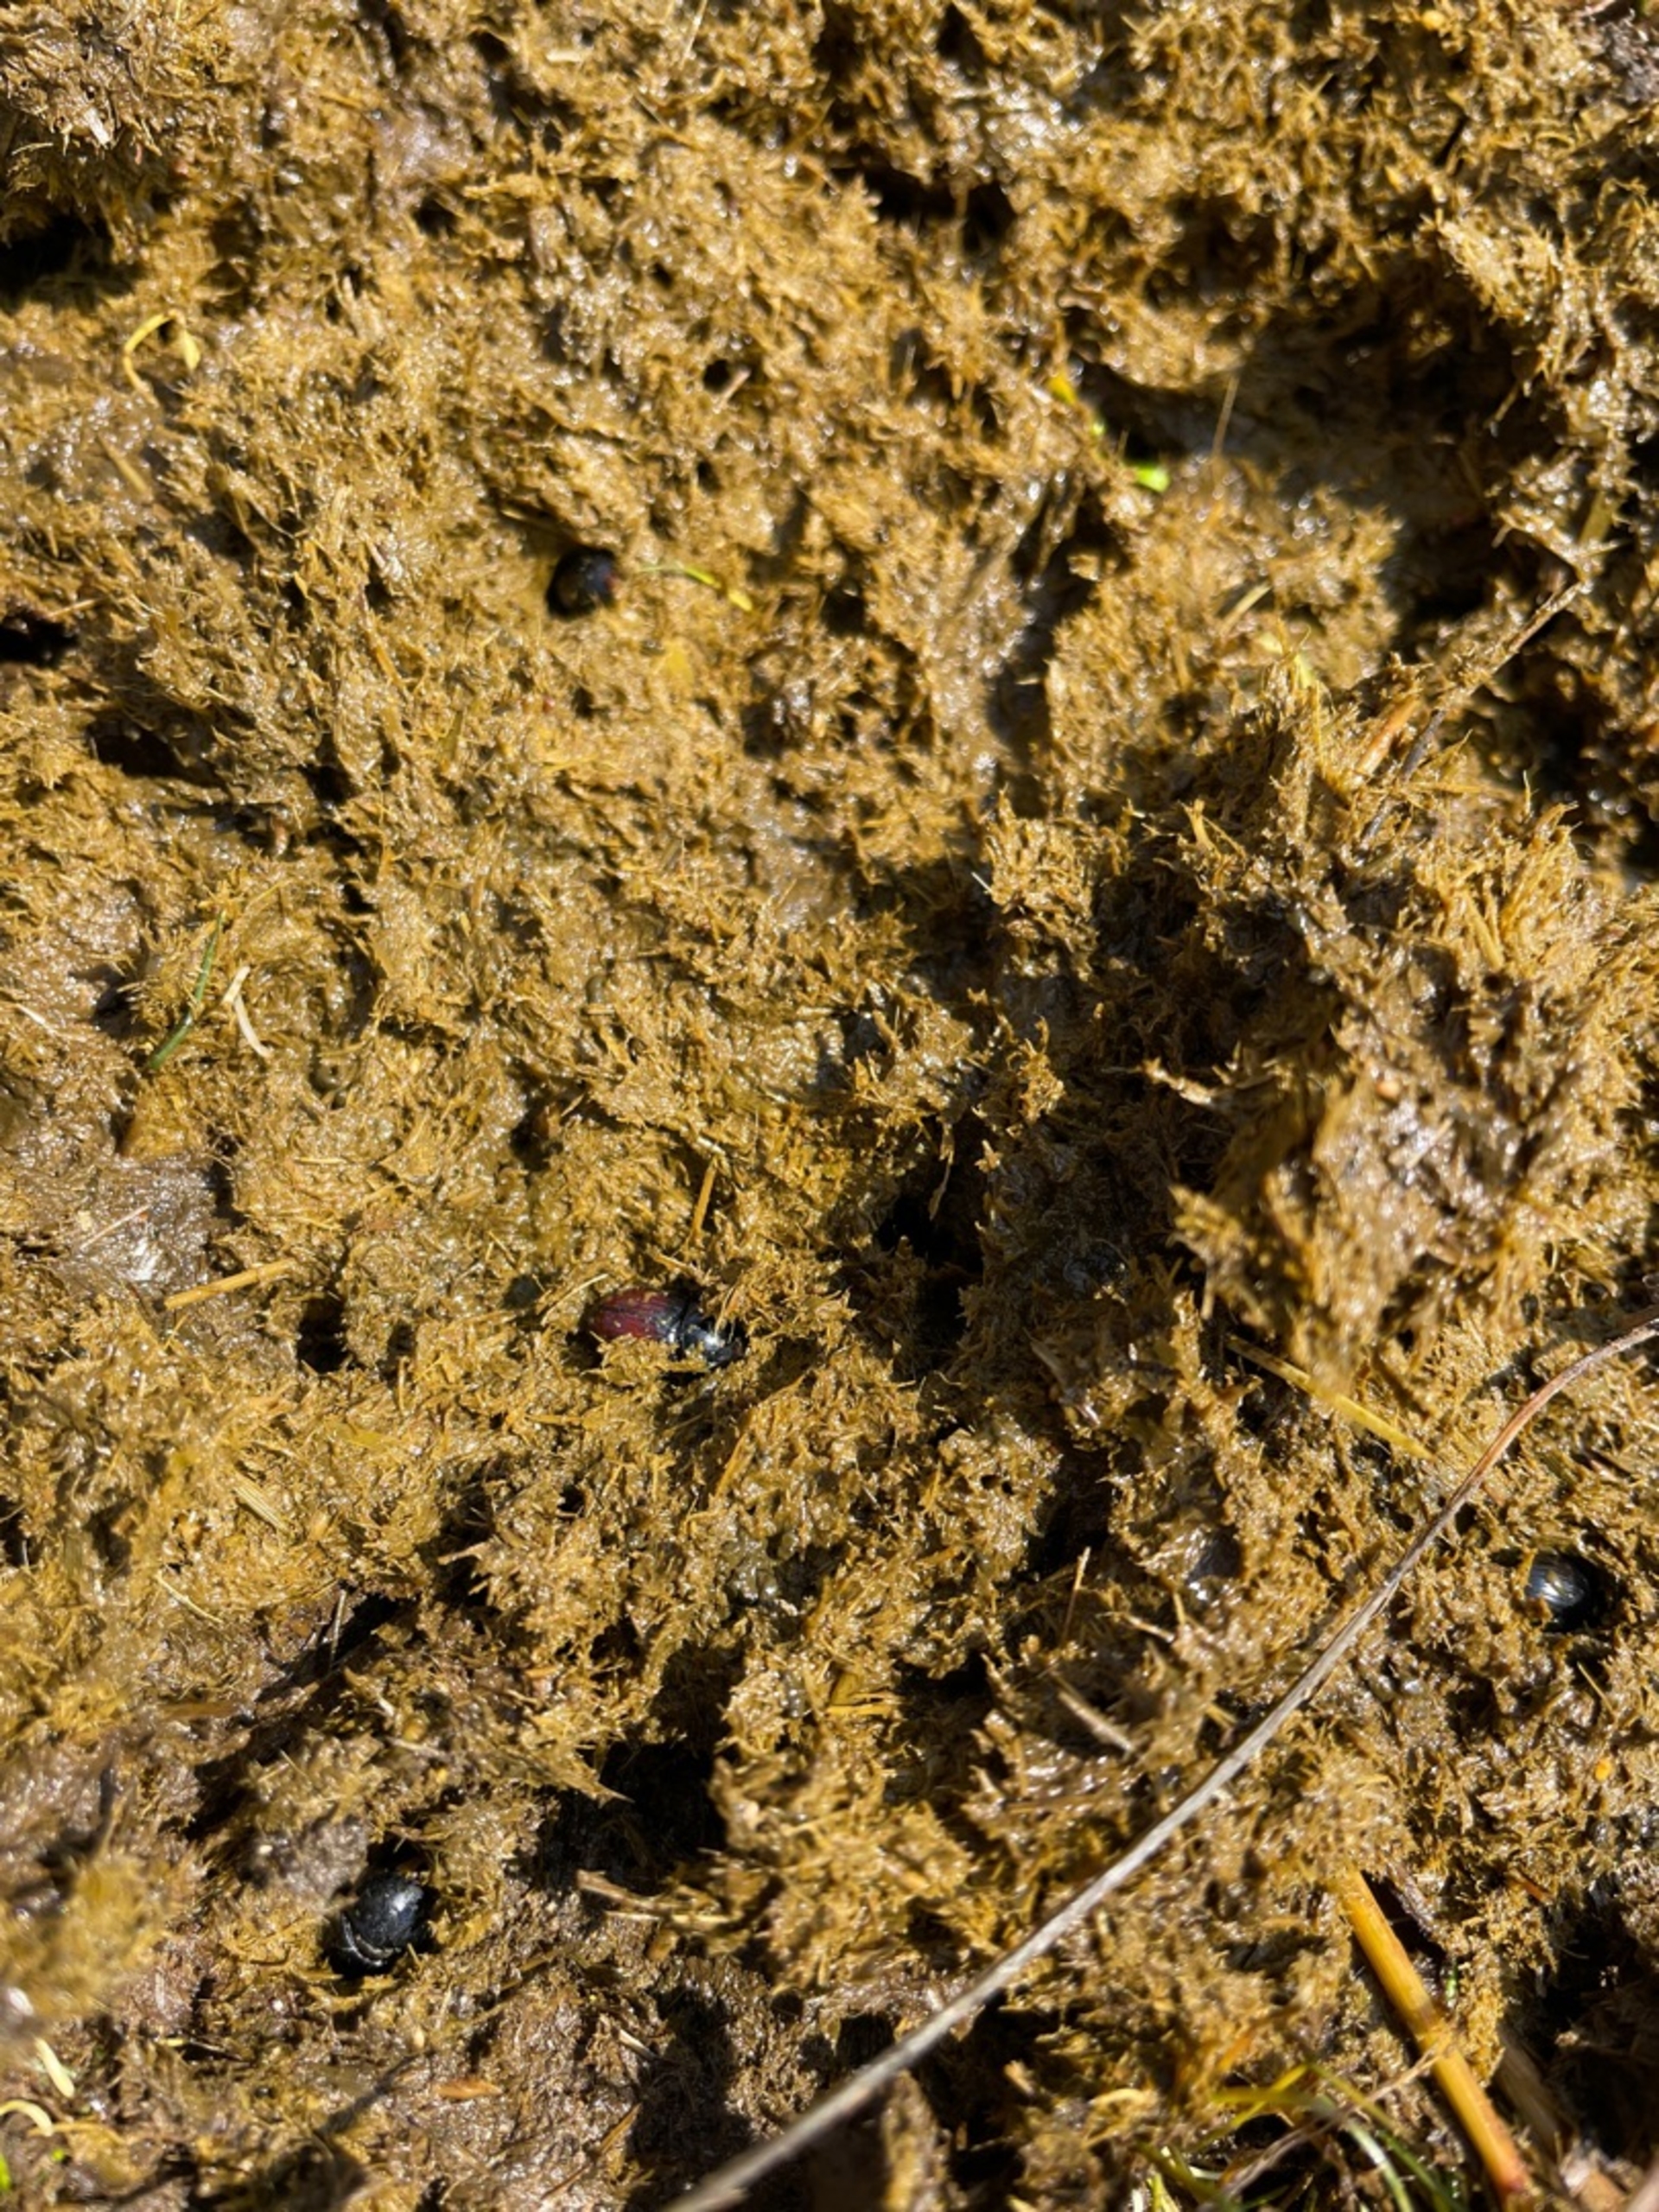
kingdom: Animalia
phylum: Arthropoda
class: Insecta
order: Coleoptera
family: Scarabaeidae
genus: Aphodius
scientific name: Aphodius
